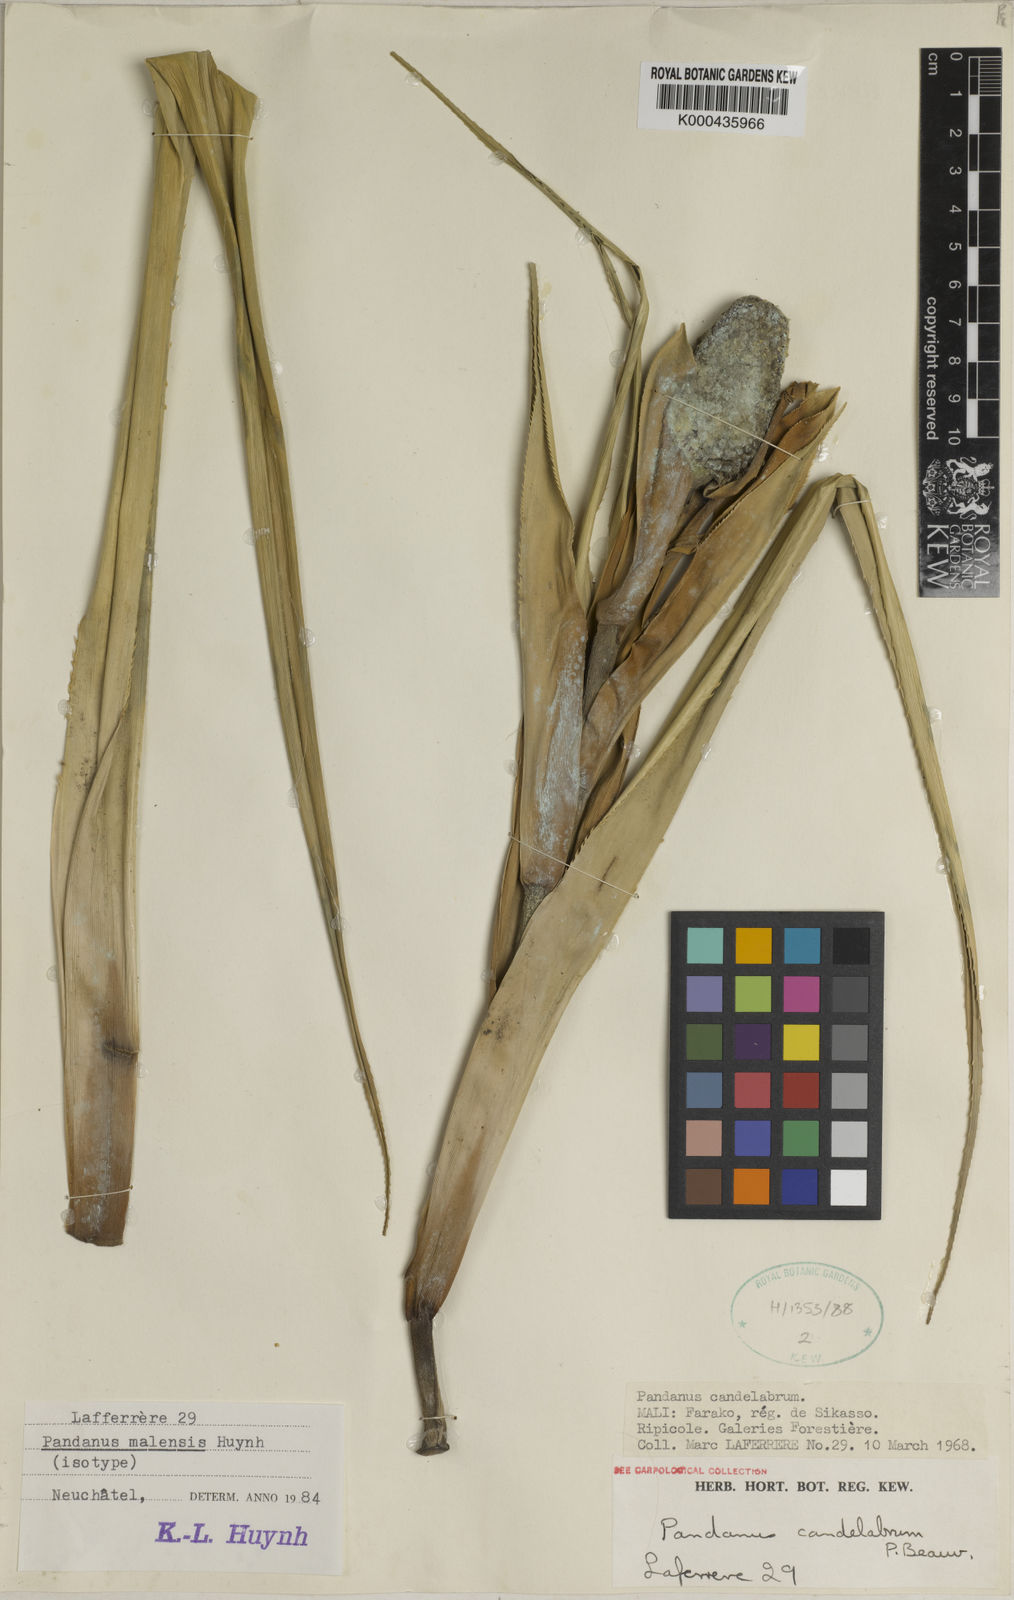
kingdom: Plantae
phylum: Tracheophyta
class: Liliopsida
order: Pandanales
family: Pandanaceae
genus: Pandanus
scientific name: Pandanus raynalii
